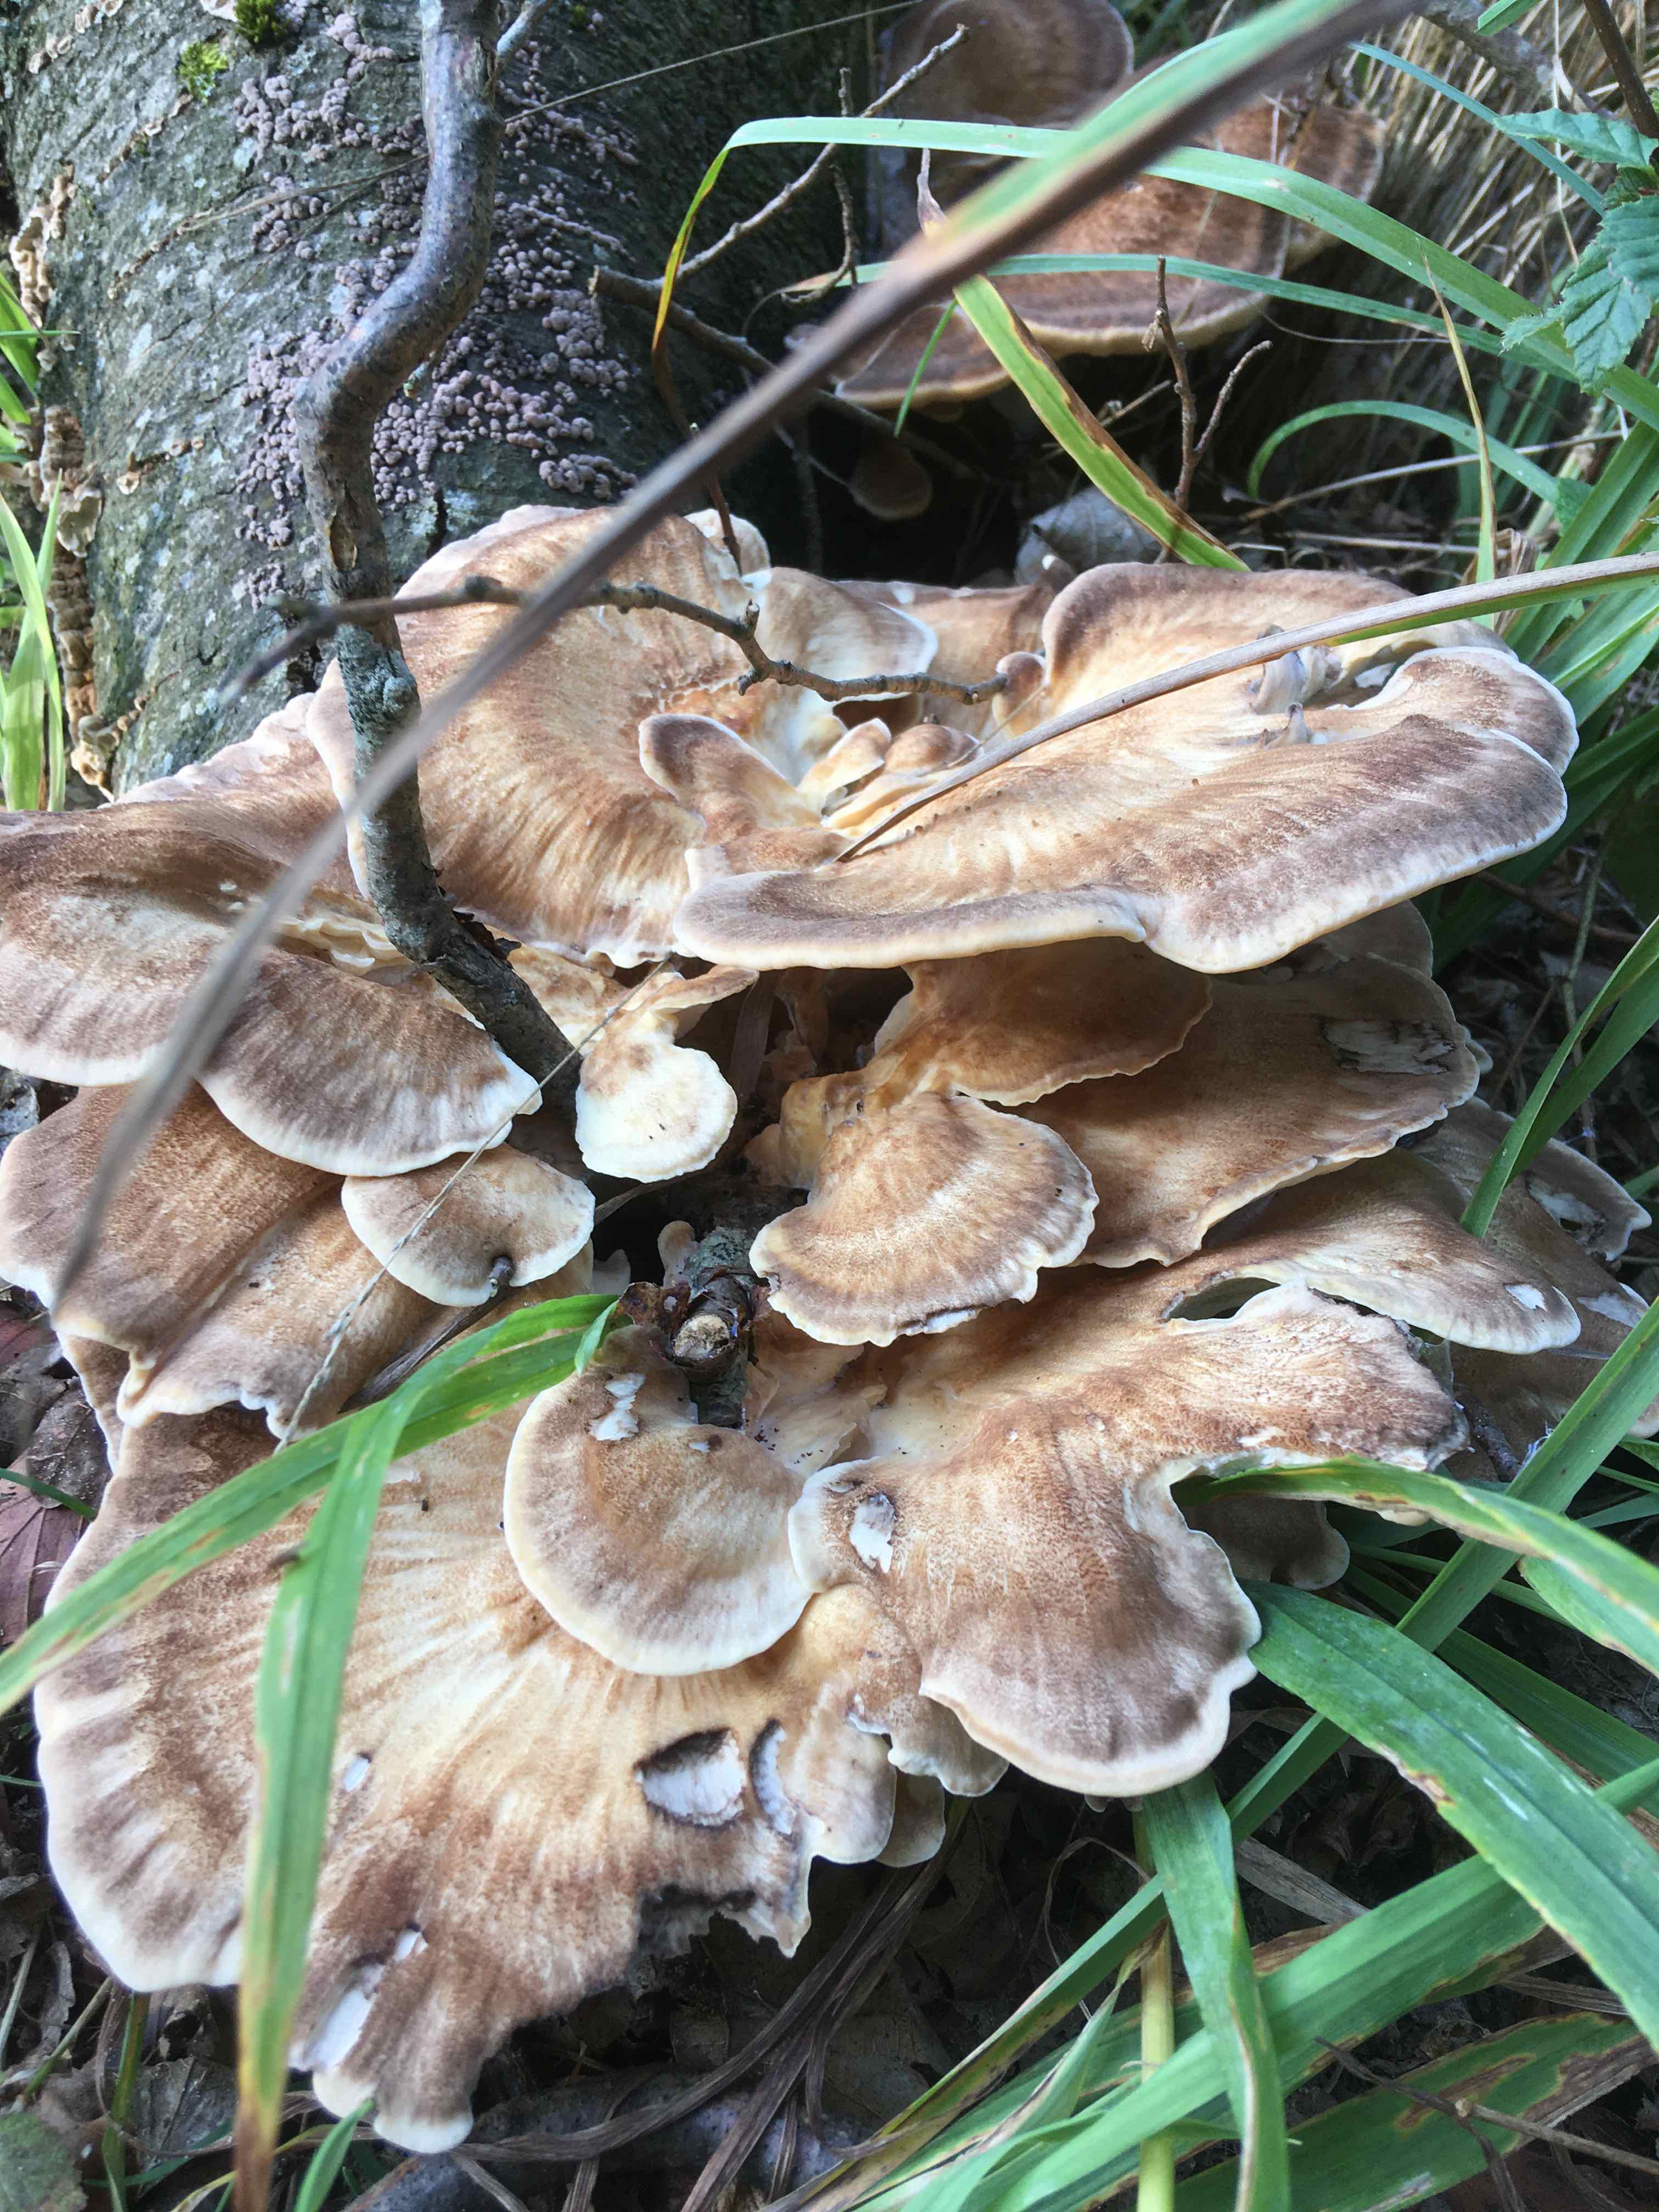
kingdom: Fungi
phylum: Basidiomycota
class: Agaricomycetes
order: Polyporales
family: Meripilaceae
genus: Meripilus
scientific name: Meripilus giganteus
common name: kæmpeporesvamp
